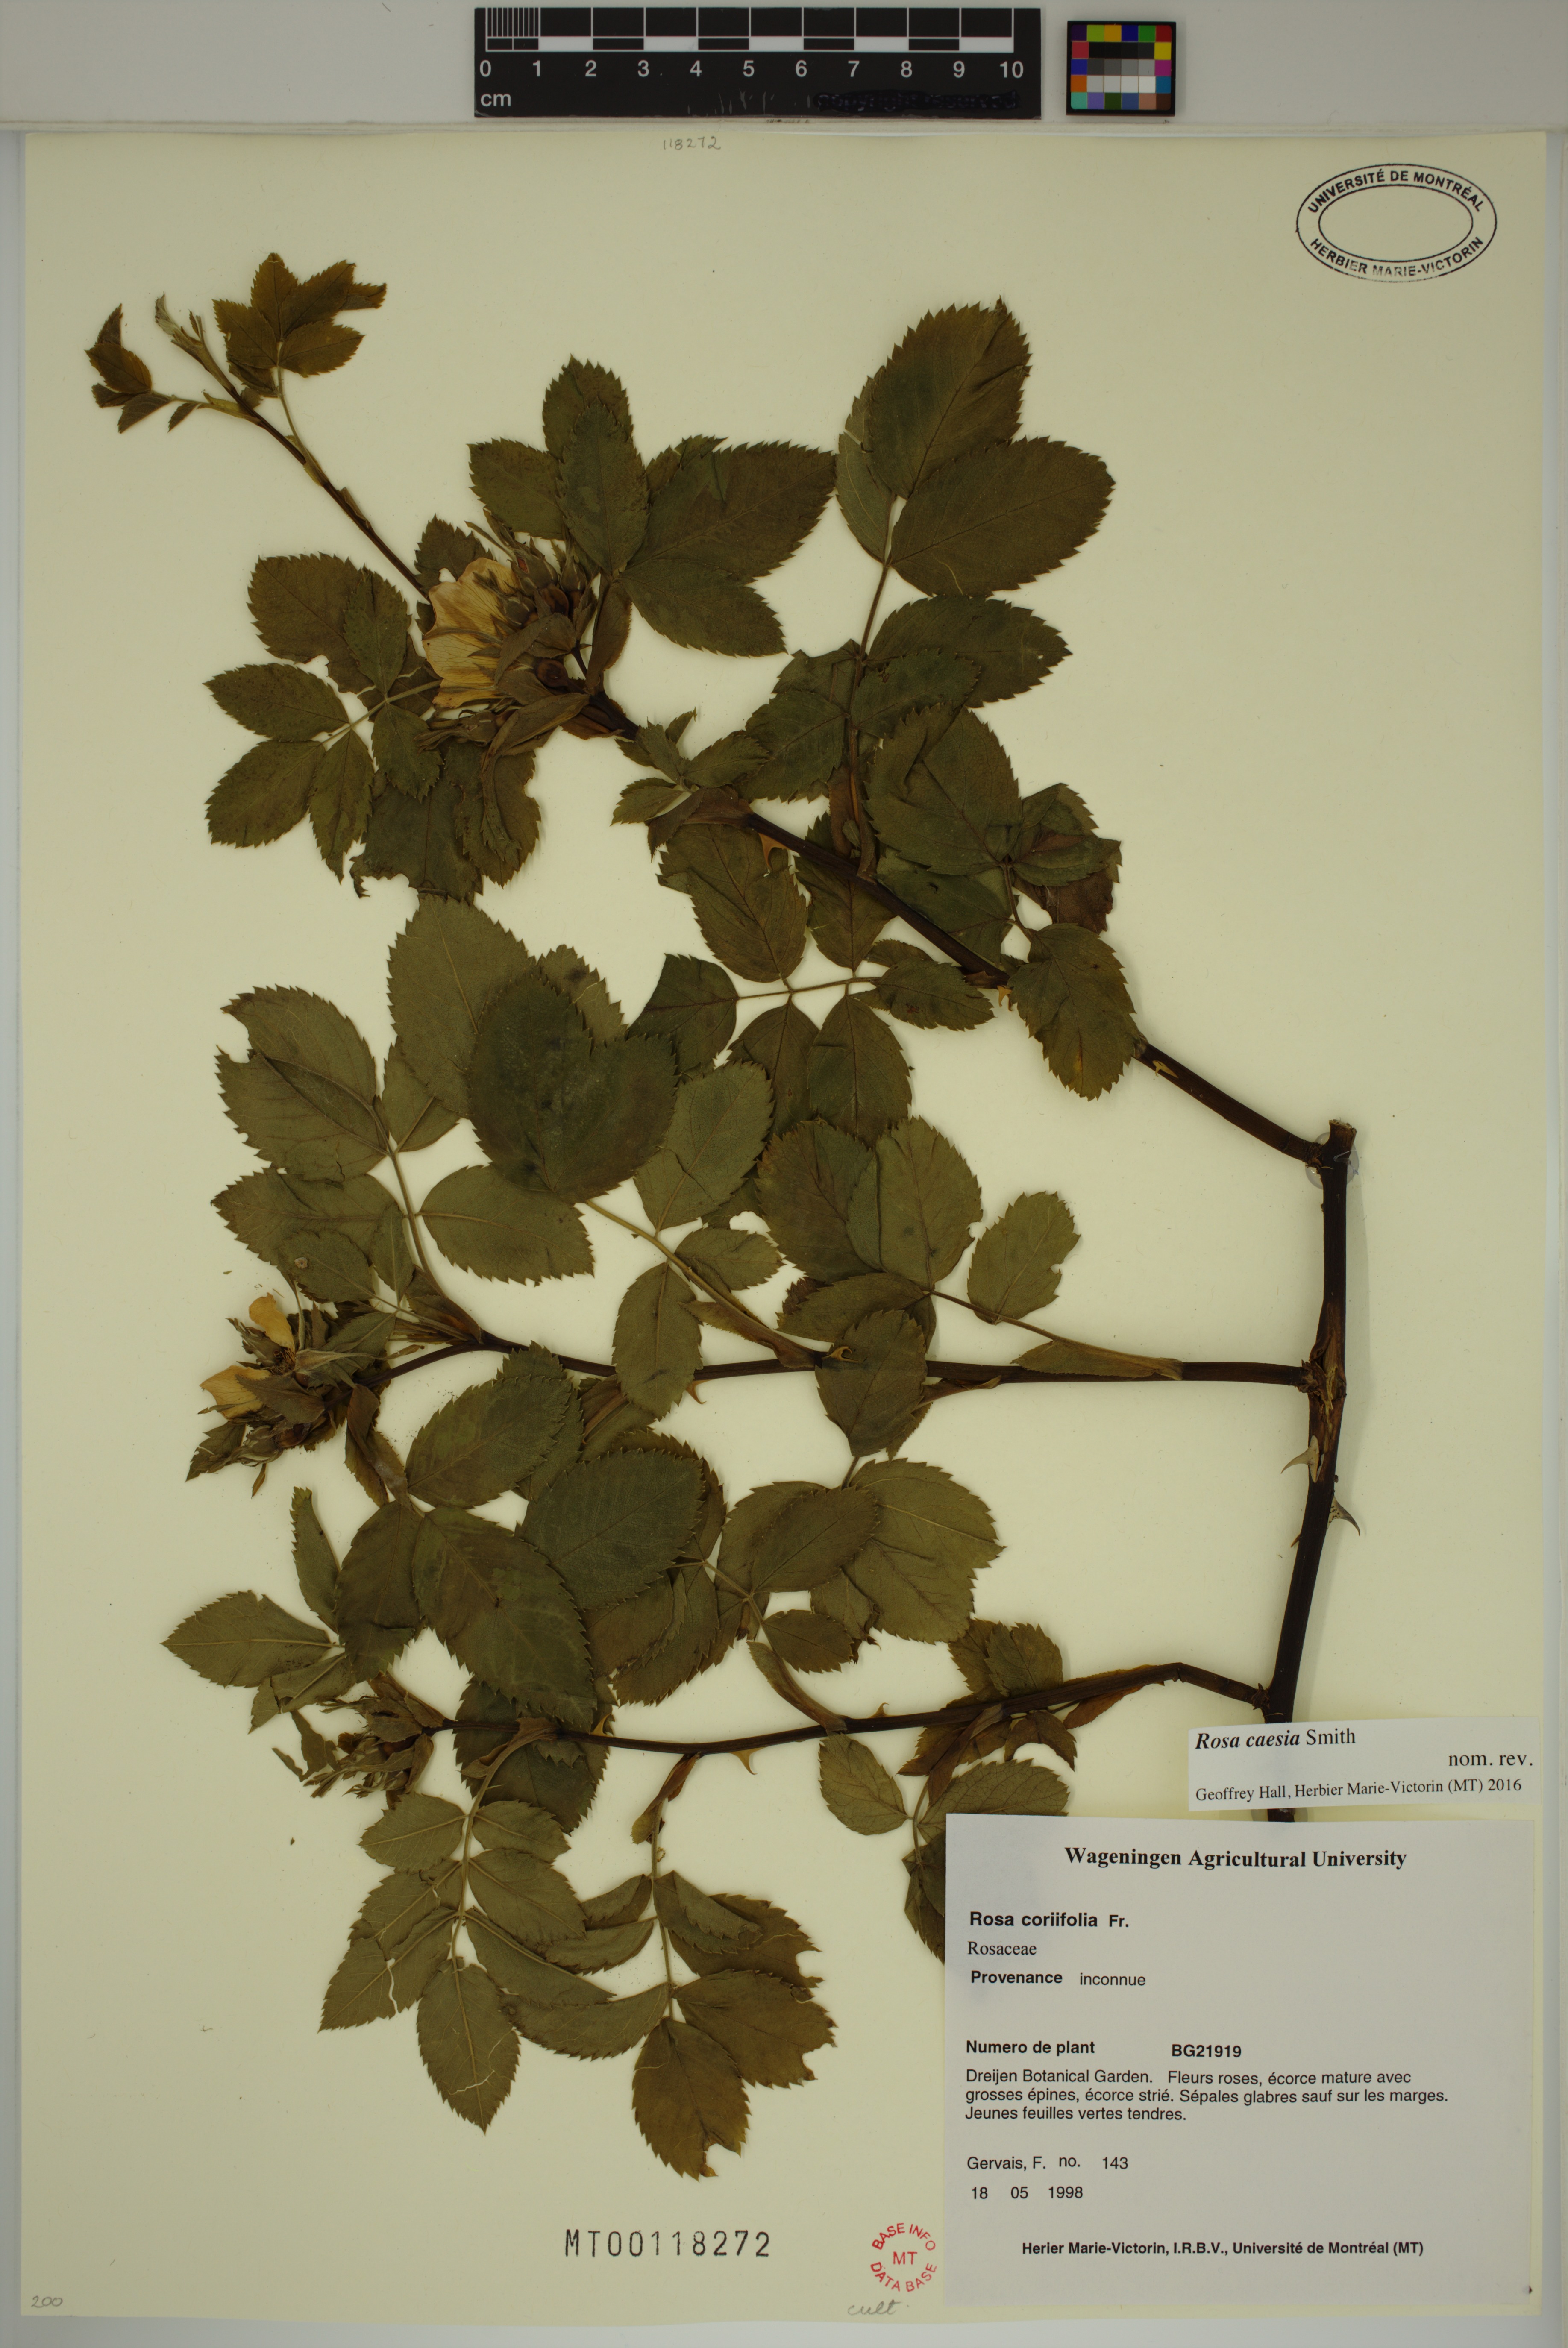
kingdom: Plantae
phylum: Tracheophyta
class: Magnoliopsida
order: Rosales
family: Rosaceae
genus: Rosa
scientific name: Rosa caesia
